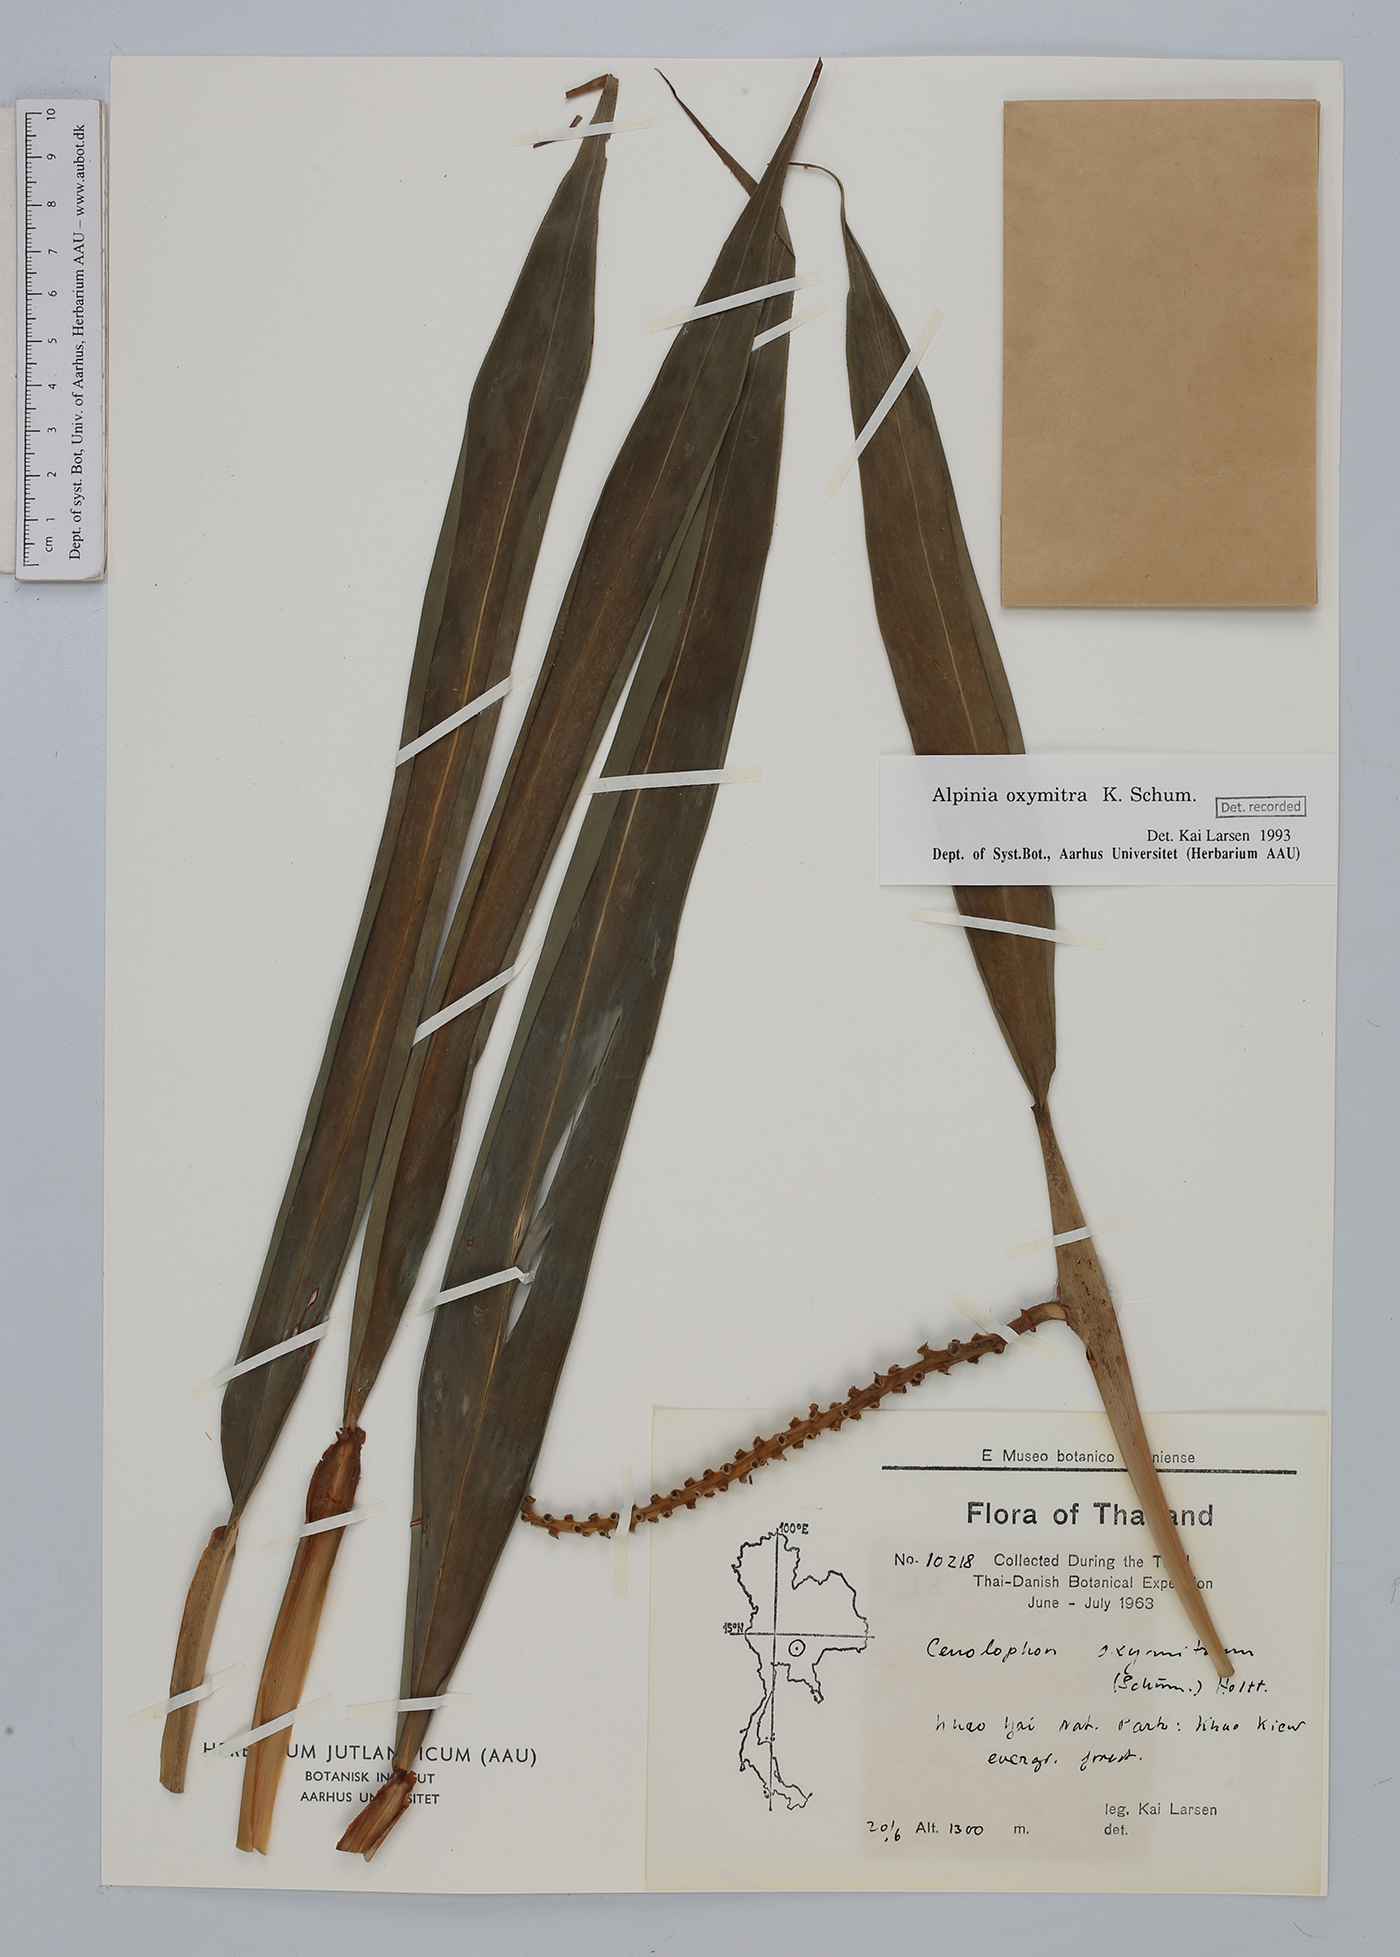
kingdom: Plantae
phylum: Tracheophyta
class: Liliopsida
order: Zingiberales
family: Zingiberaceae
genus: Alpinia
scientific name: Alpinia oxymitra
